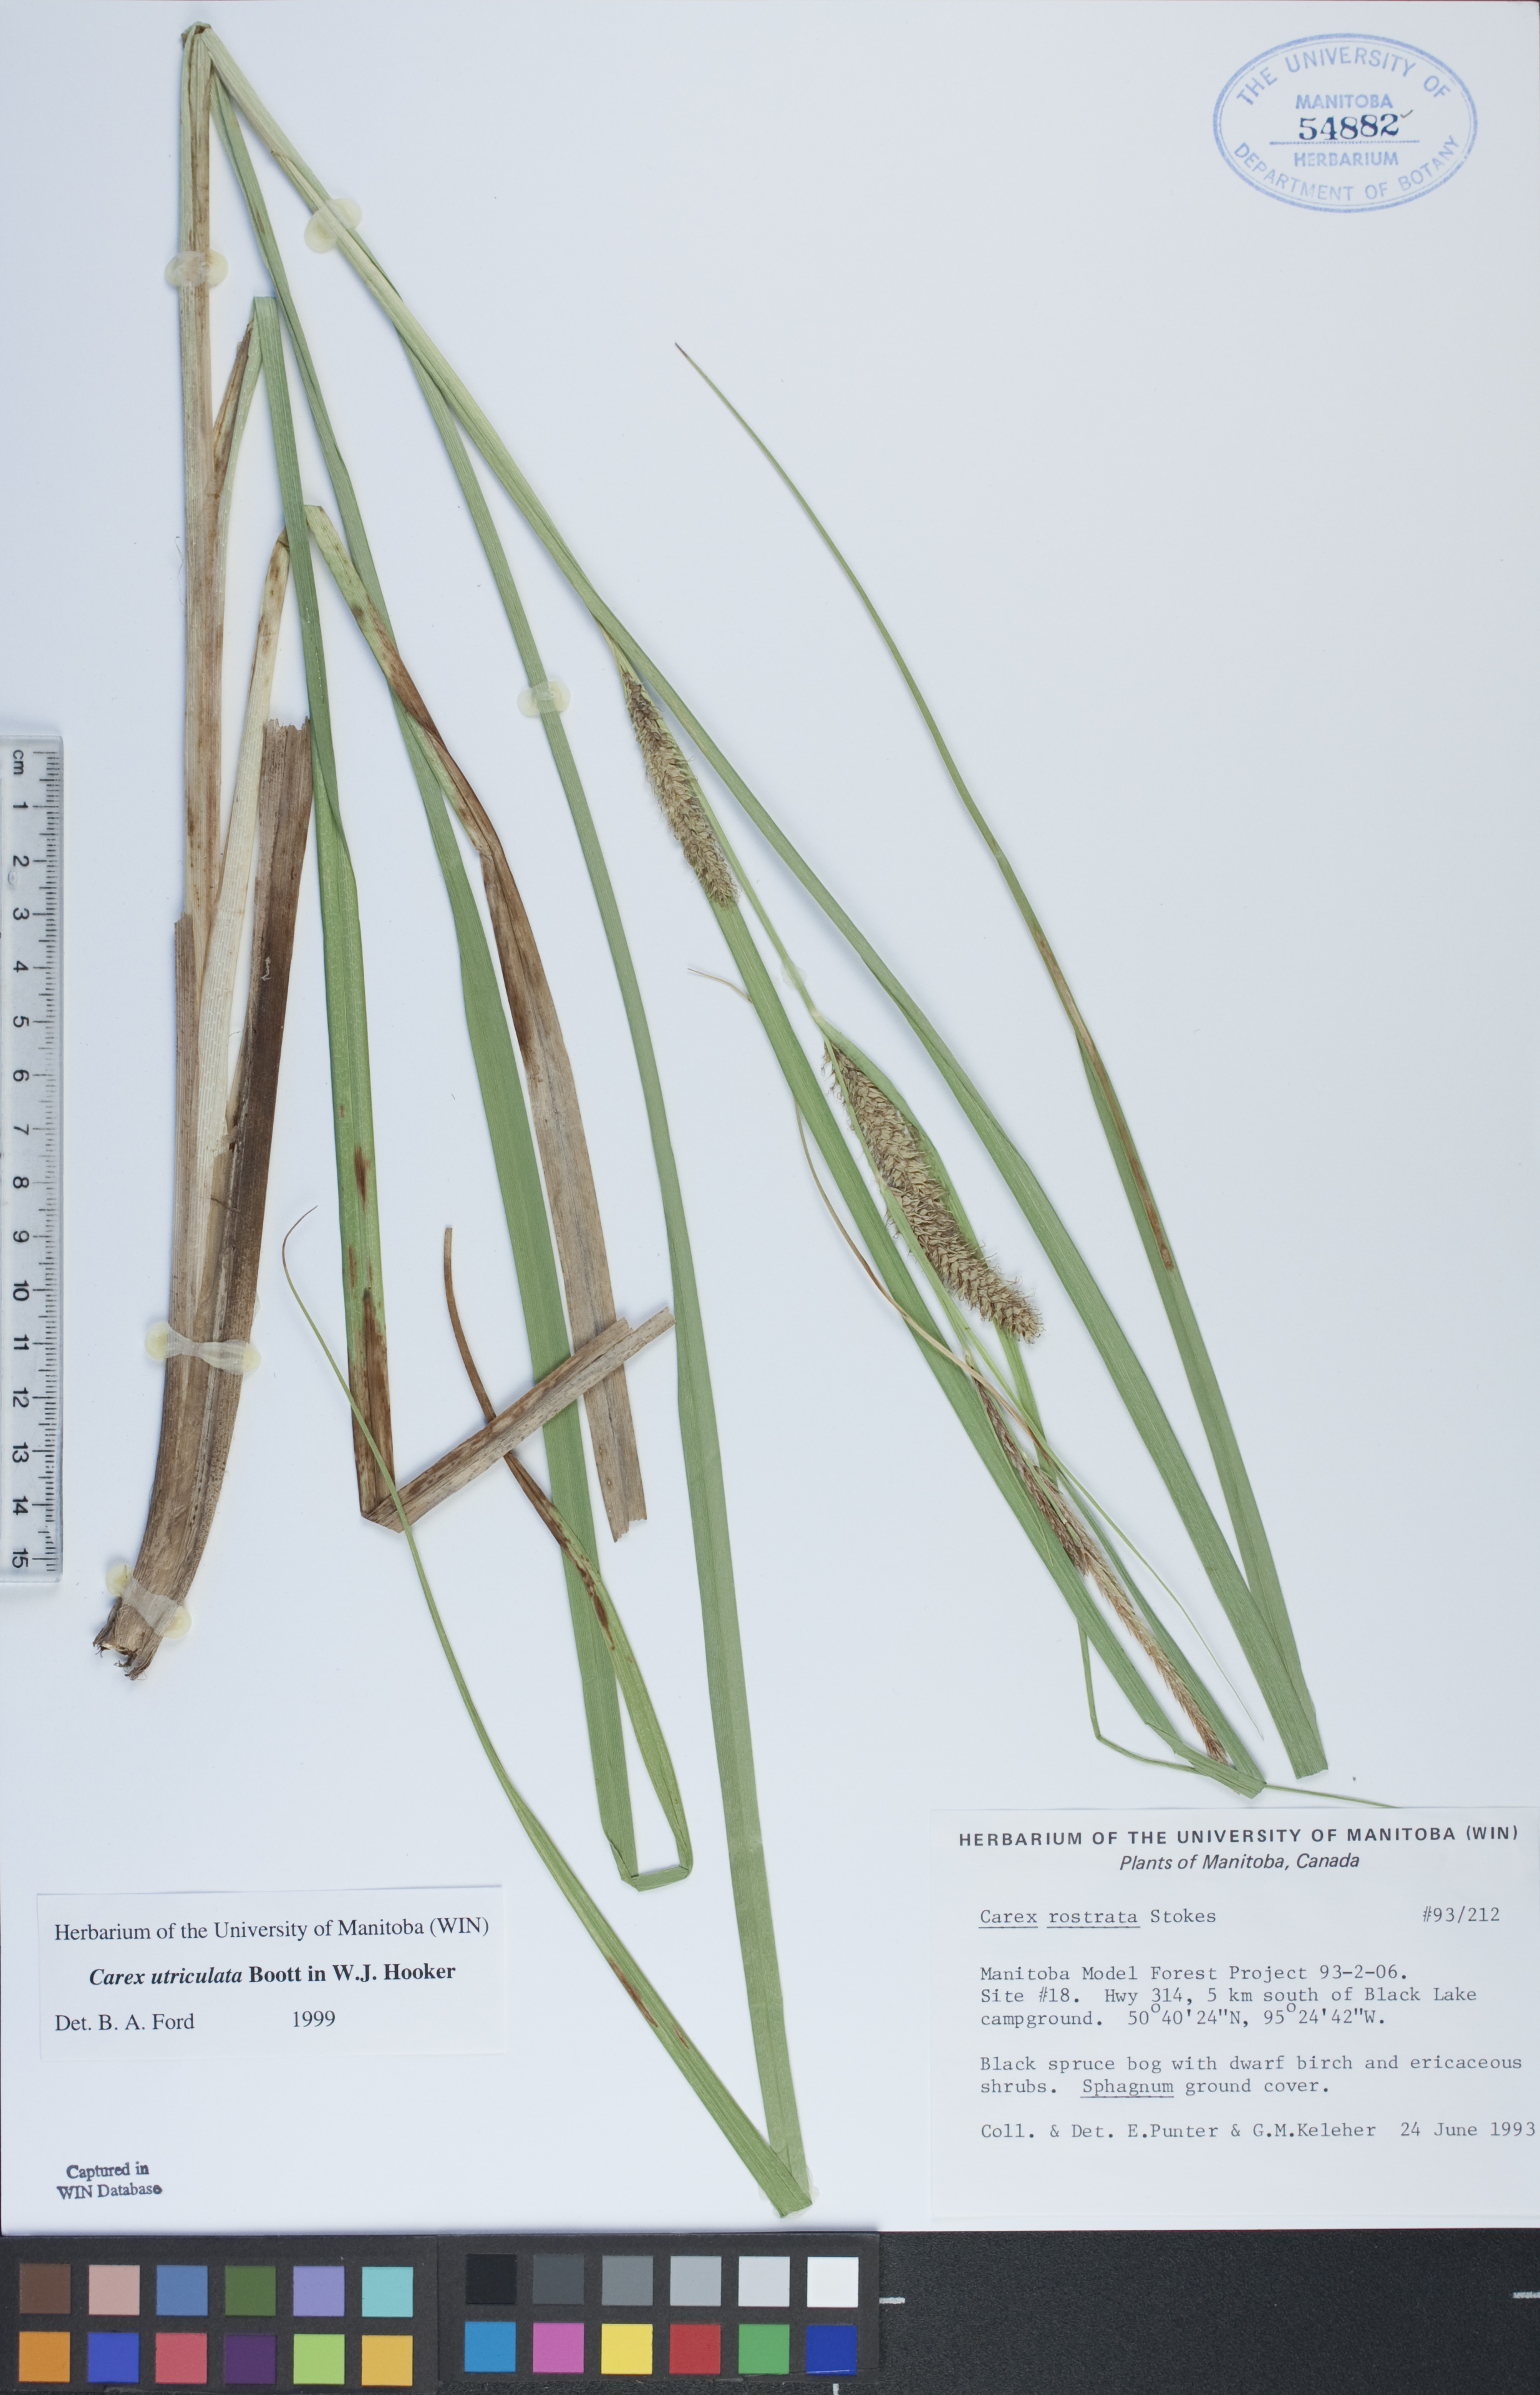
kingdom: Plantae
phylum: Tracheophyta
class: Liliopsida
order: Poales
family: Cyperaceae
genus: Carex
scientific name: Carex utriculata
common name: Beaked sedge
